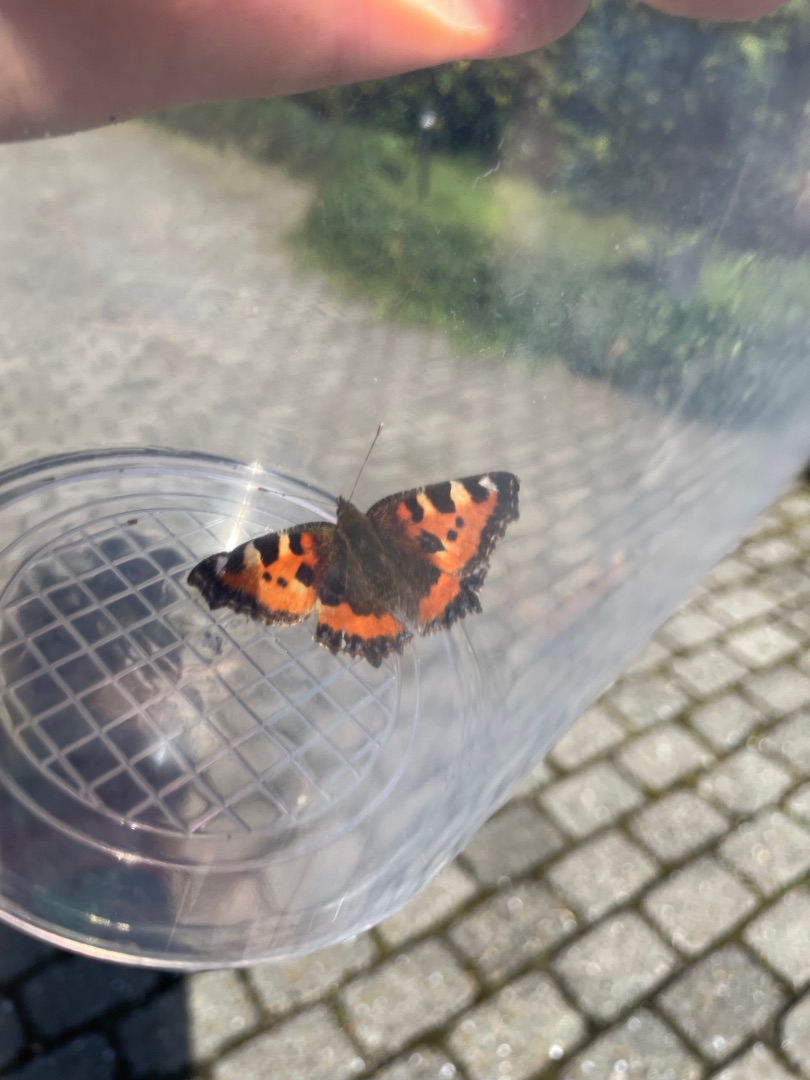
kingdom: Animalia
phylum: Arthropoda
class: Insecta
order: Lepidoptera
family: Nymphalidae
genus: Aglais
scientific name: Aglais urticae
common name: Nældens takvinge
